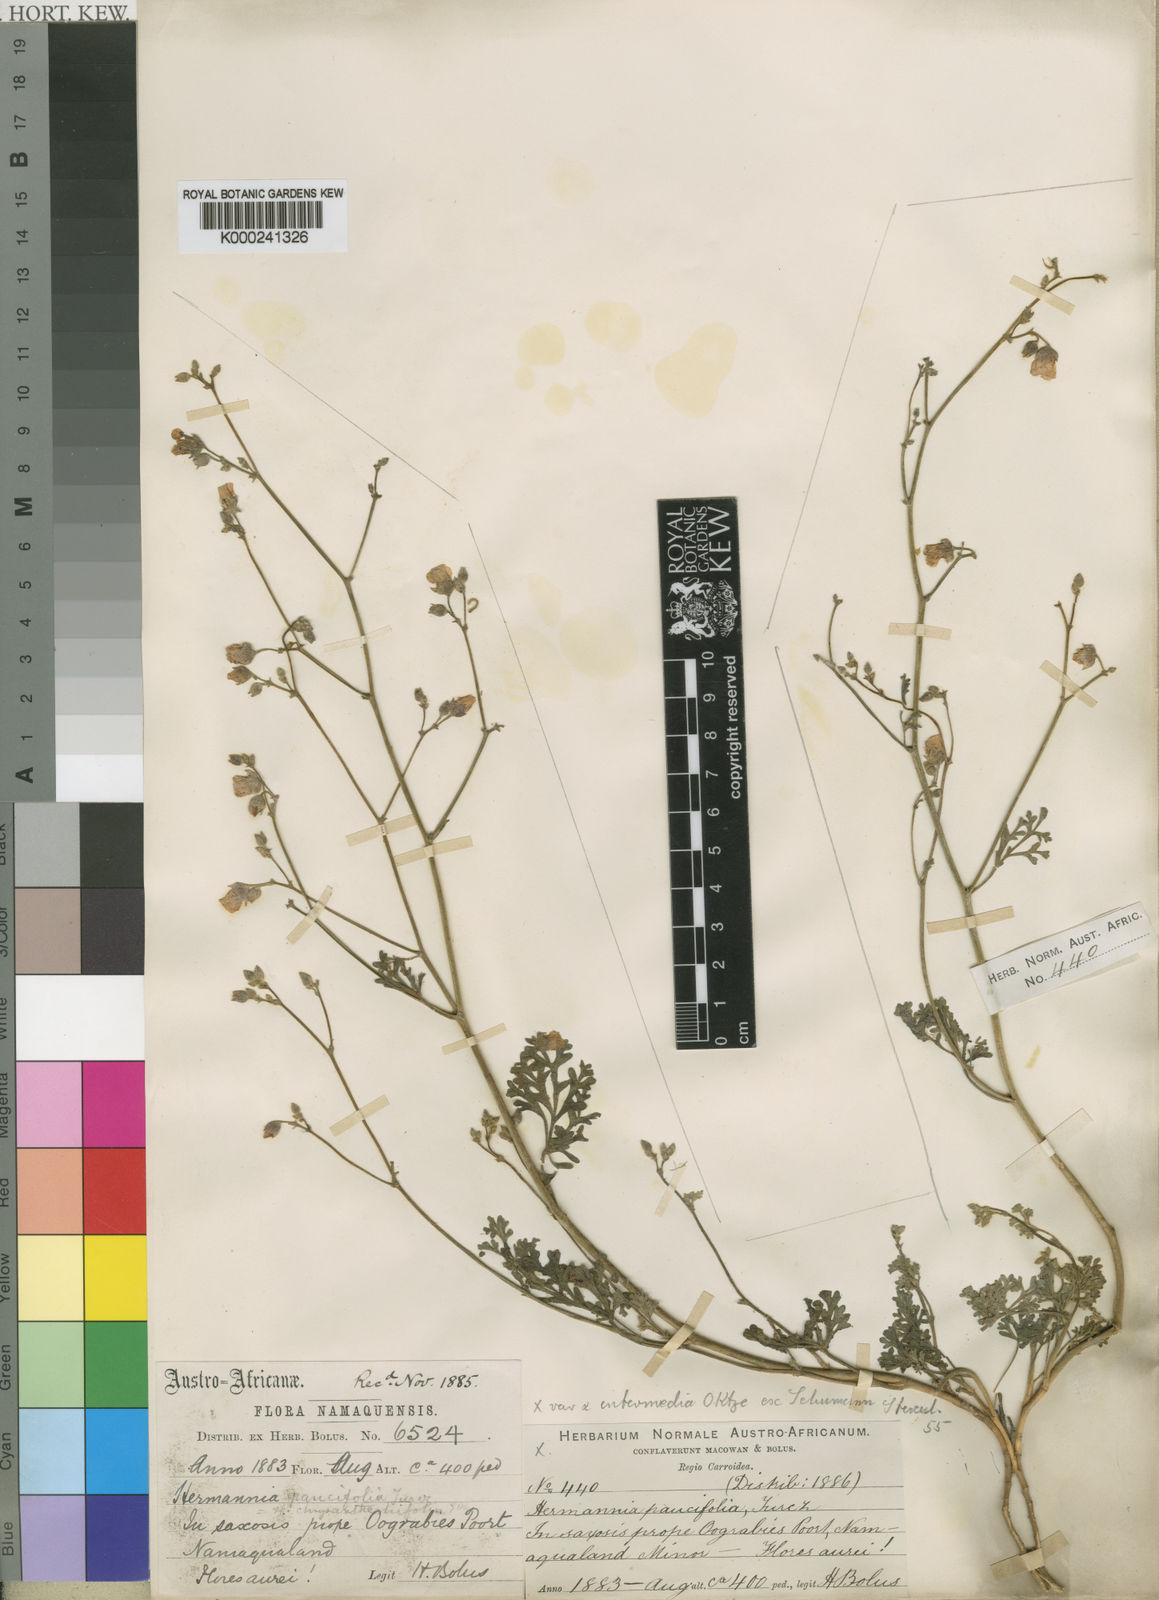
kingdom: Plantae
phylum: Tracheophyta
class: Magnoliopsida
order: Malvales
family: Malvaceae
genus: Hermannia
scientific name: Hermannia paucifolia
